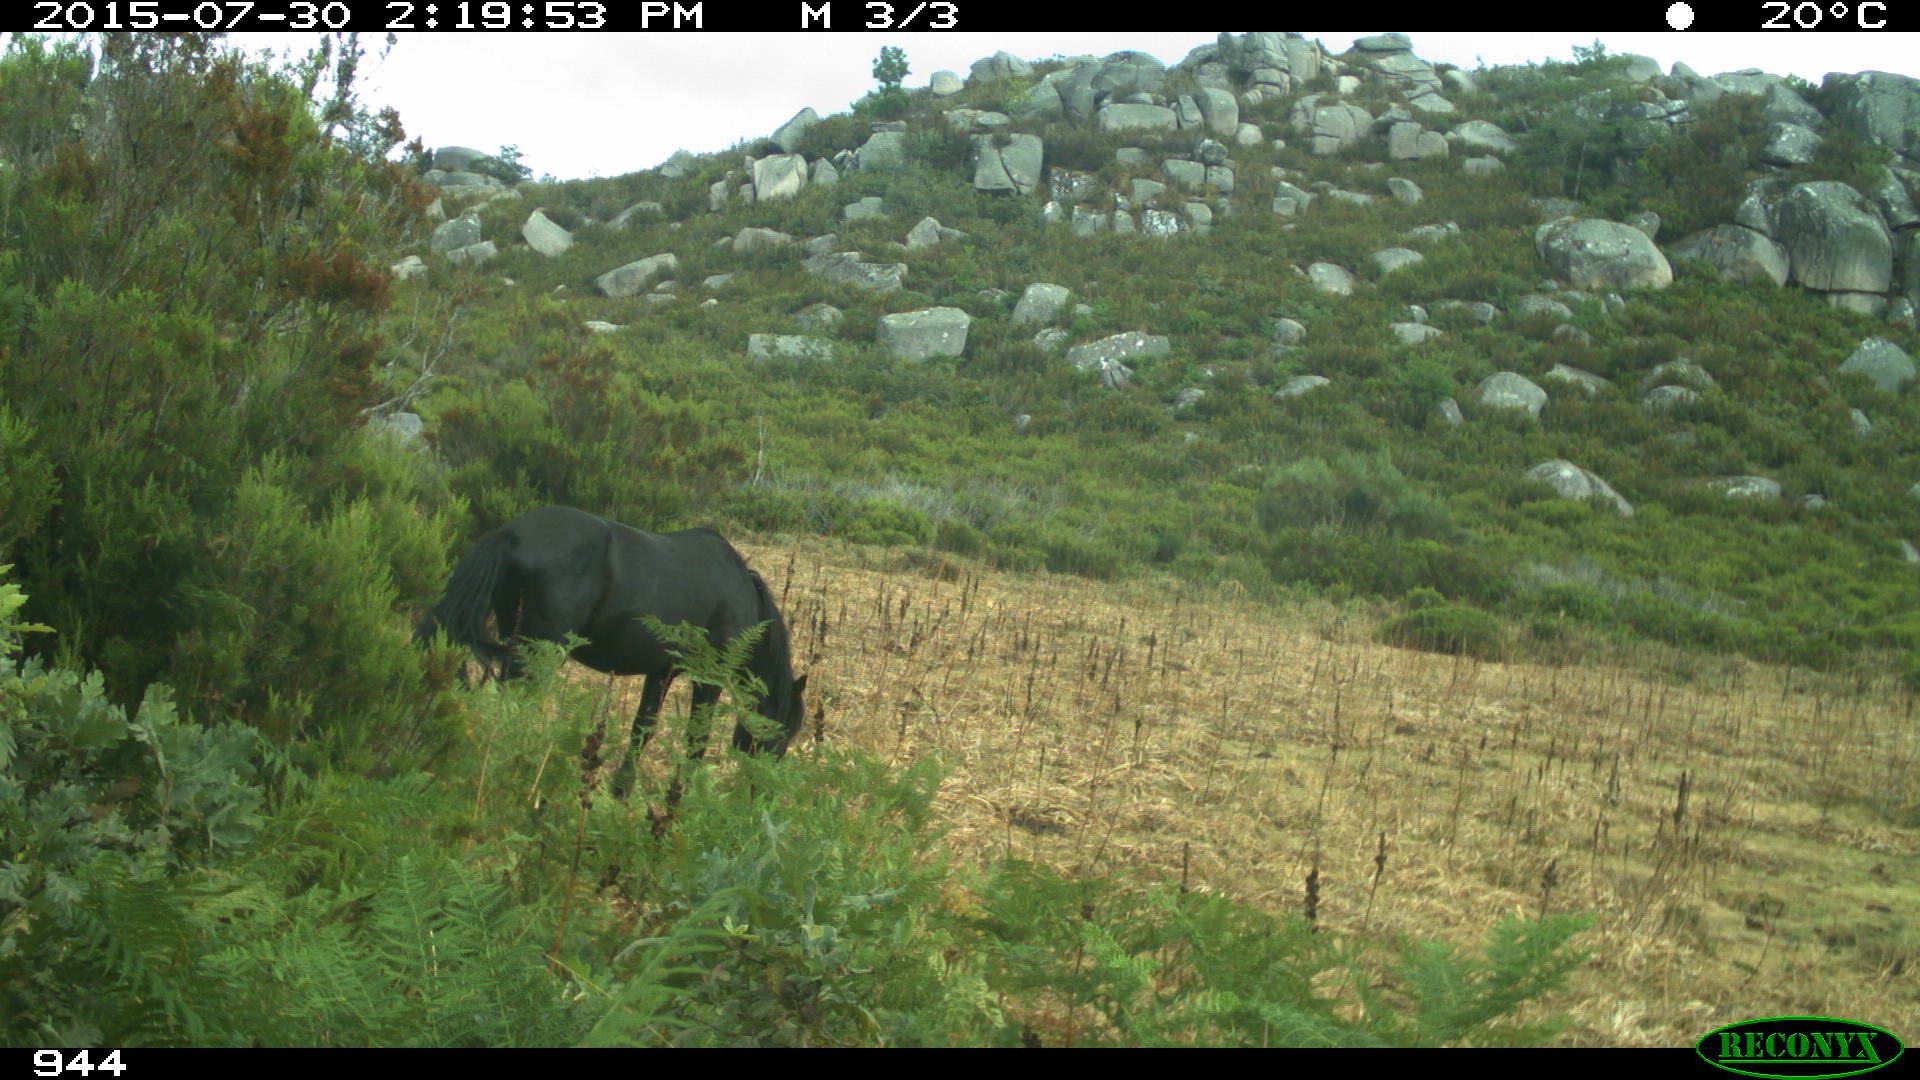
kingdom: Animalia
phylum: Chordata
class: Mammalia
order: Perissodactyla
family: Equidae
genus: Equus
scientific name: Equus caballus
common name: Horse
